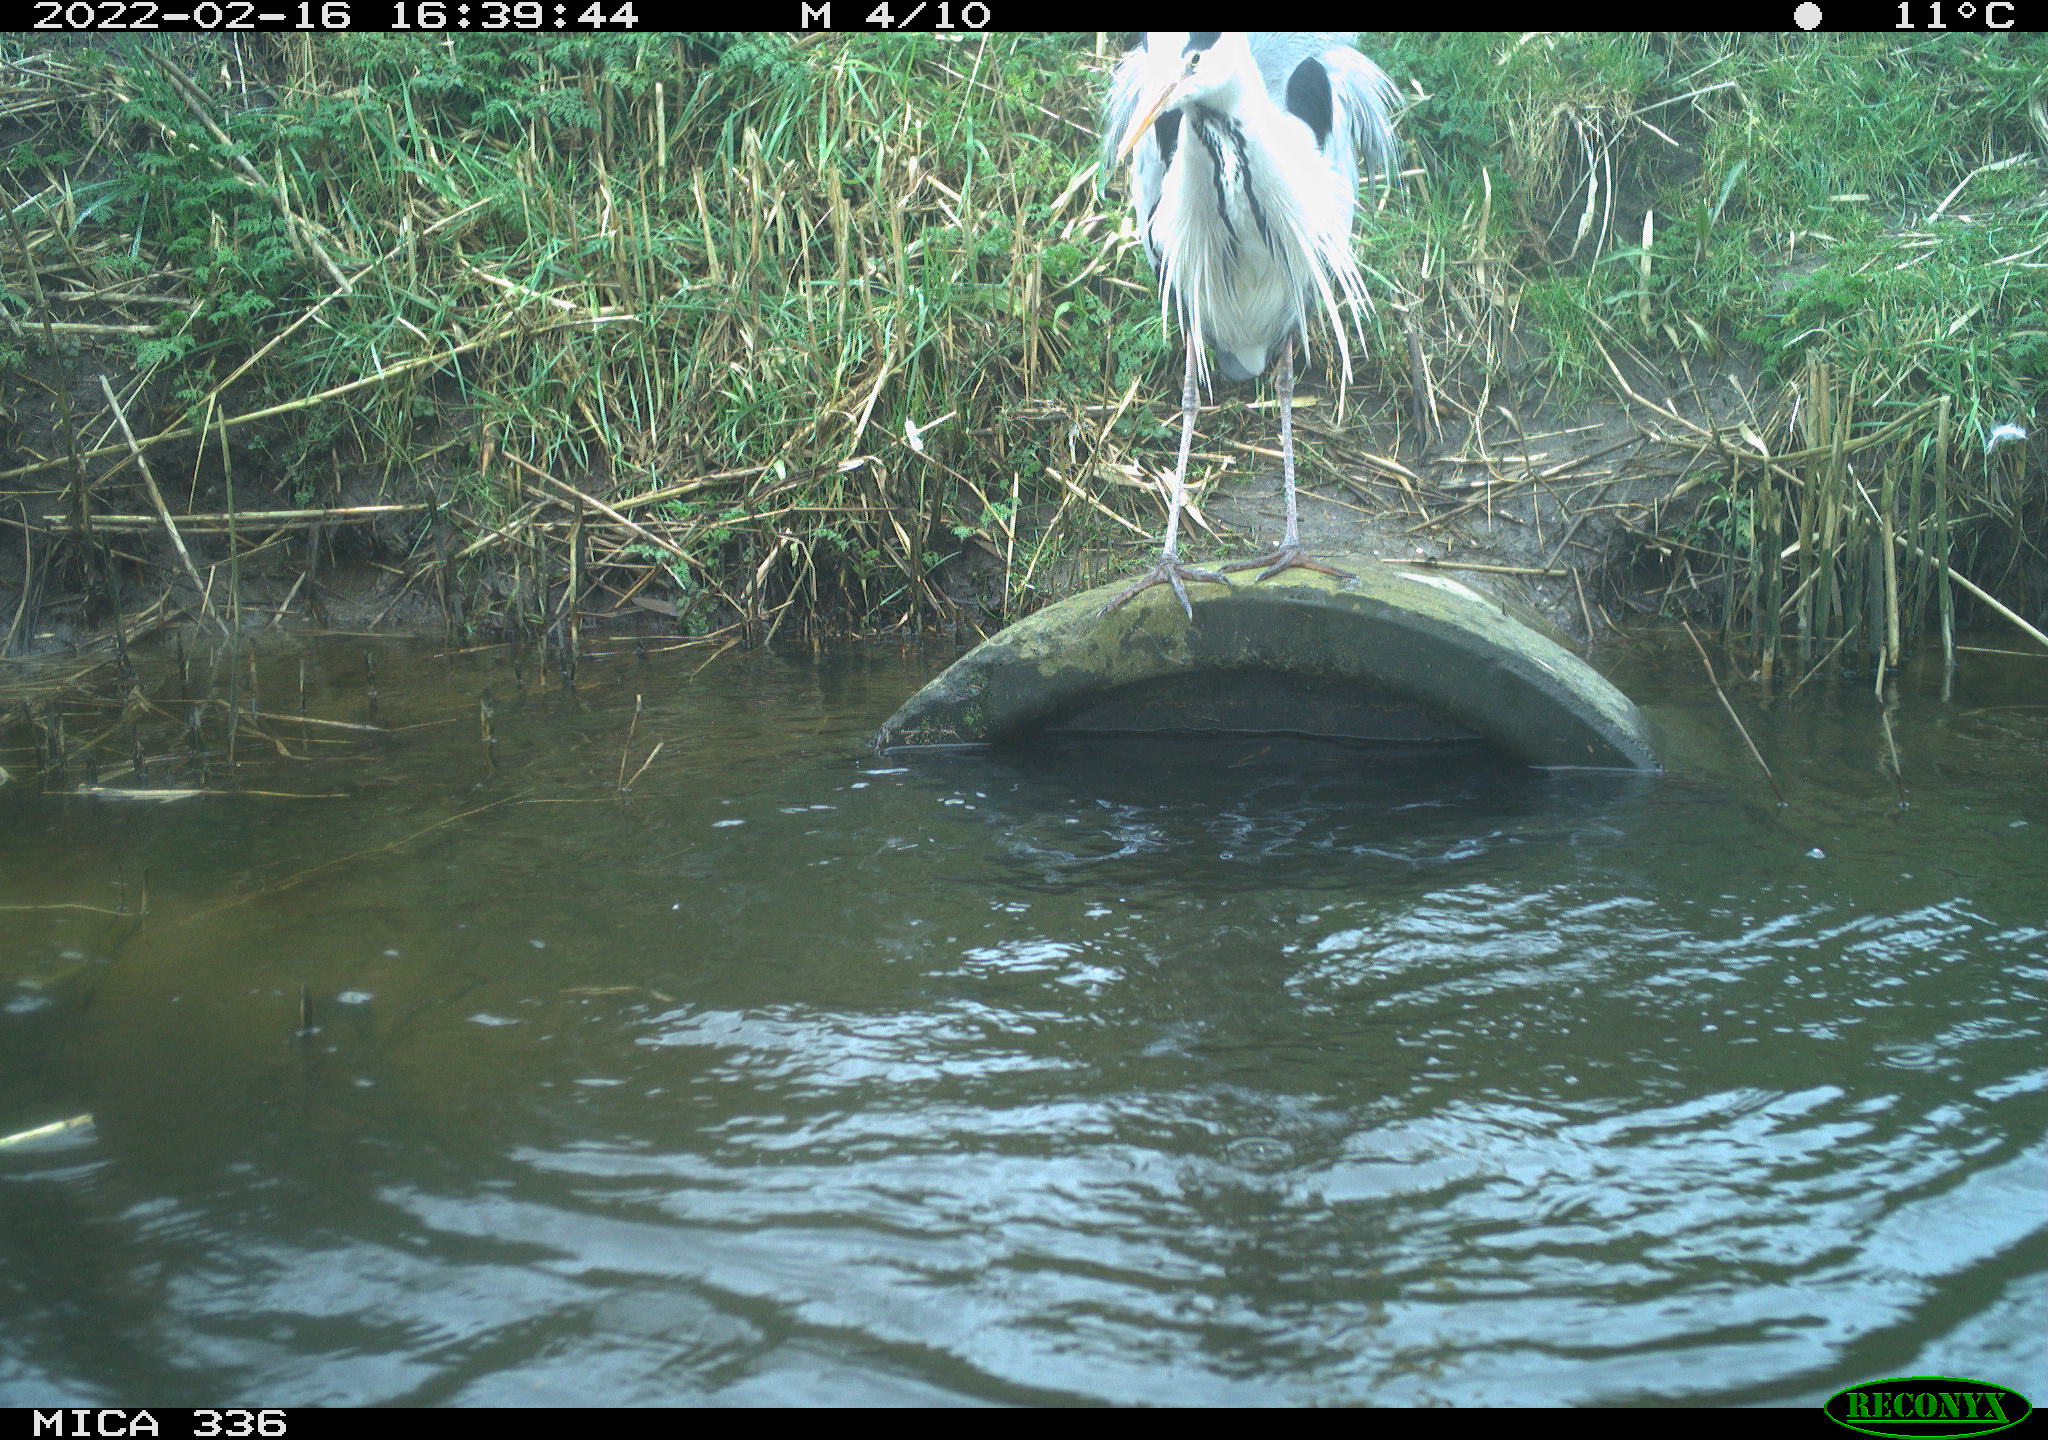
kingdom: Animalia
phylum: Chordata
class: Aves
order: Pelecaniformes
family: Ardeidae
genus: Ardea
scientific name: Ardea cinerea
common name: Grey heron
